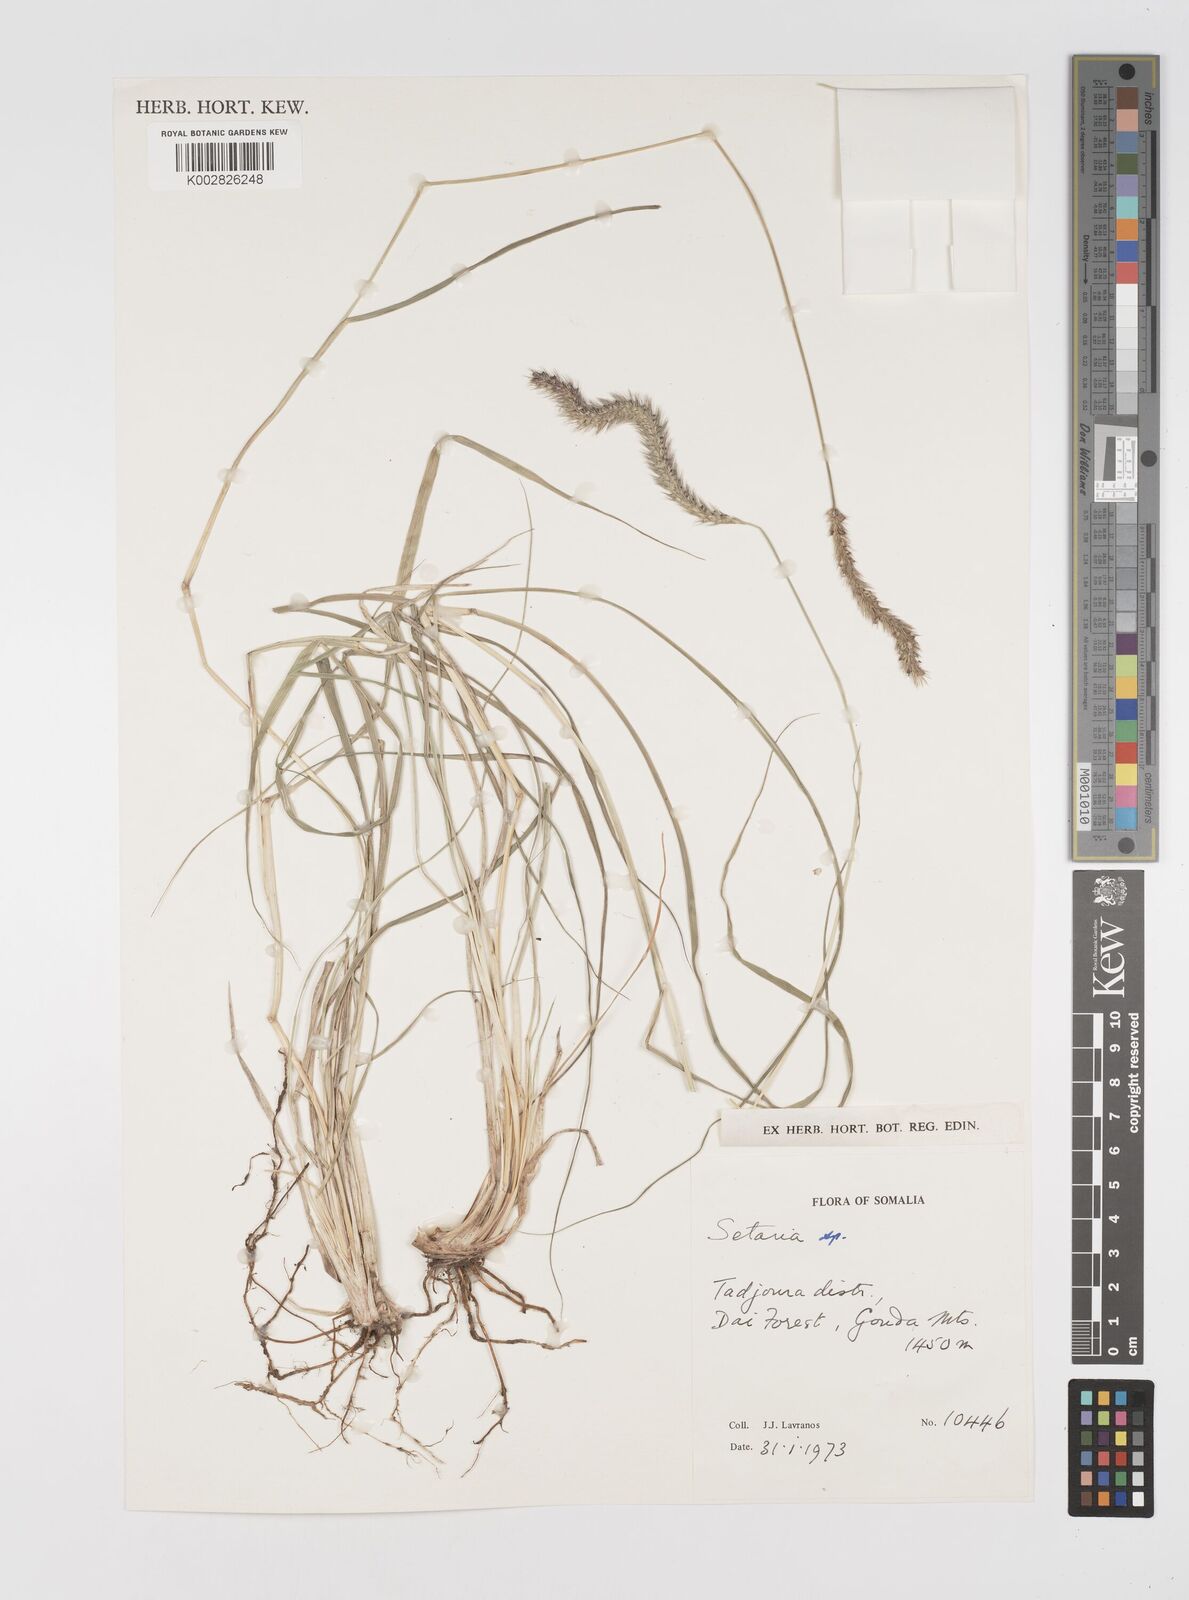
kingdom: Plantae
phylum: Tracheophyta
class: Liliopsida
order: Poales
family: Poaceae
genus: Setaria
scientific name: Setaria incrassata
